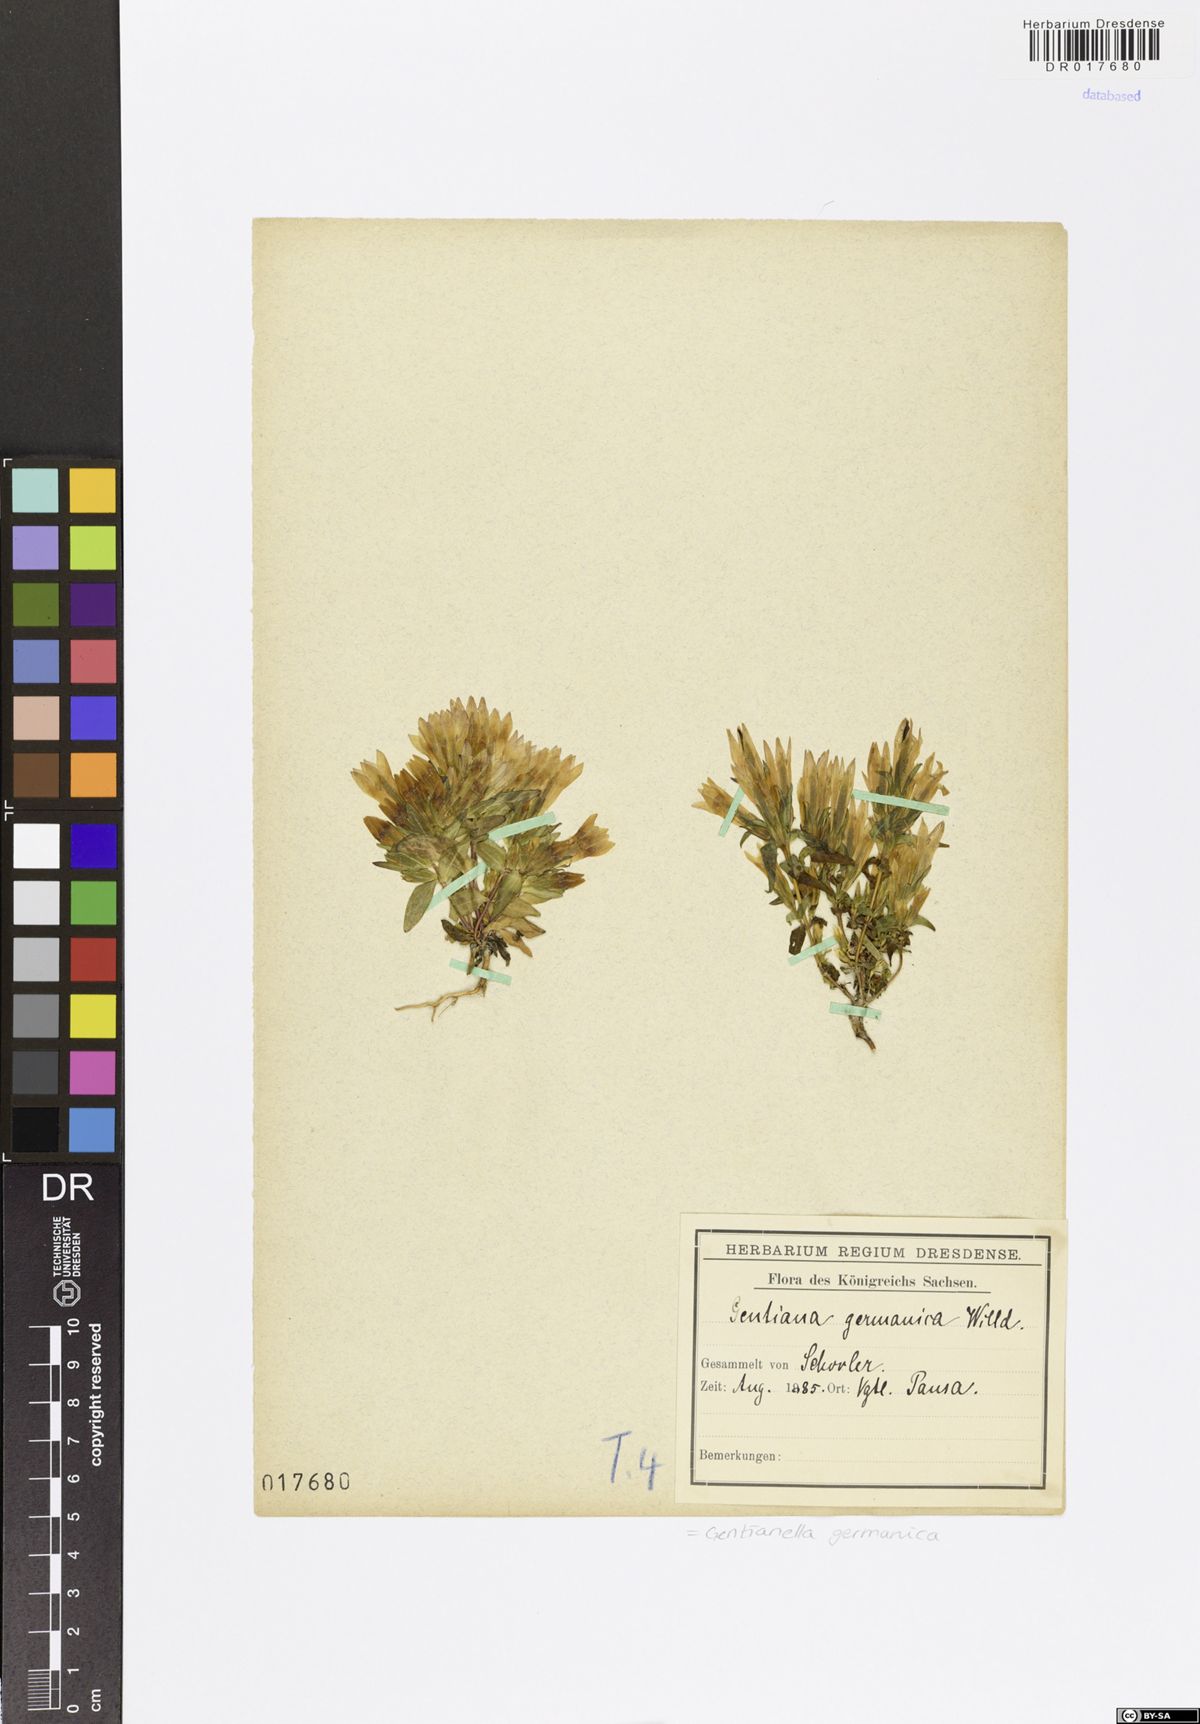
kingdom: Plantae
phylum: Tracheophyta
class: Magnoliopsida
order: Gentianales
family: Gentianaceae
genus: Gentianella
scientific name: Gentianella germanica
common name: Chiltern-gentian
